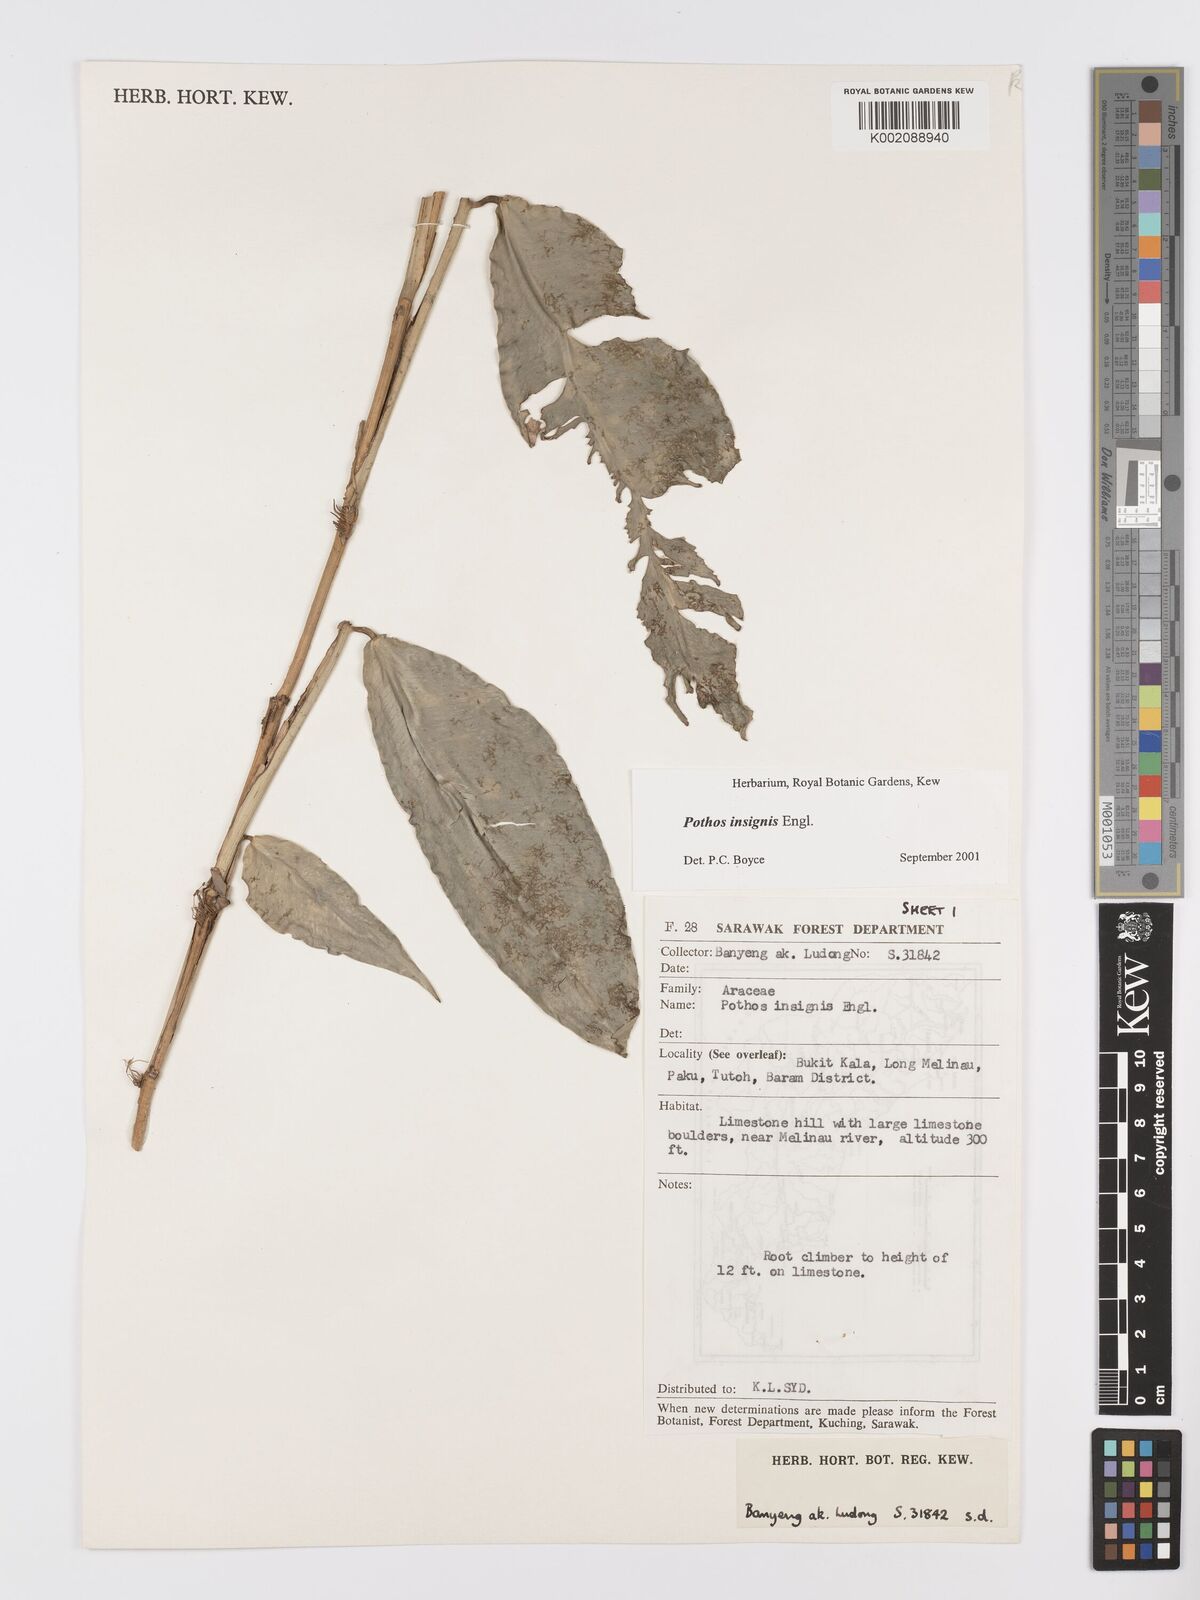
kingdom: Plantae
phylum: Tracheophyta
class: Liliopsida
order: Alismatales
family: Araceae
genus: Pothos
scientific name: Pothos insignis
